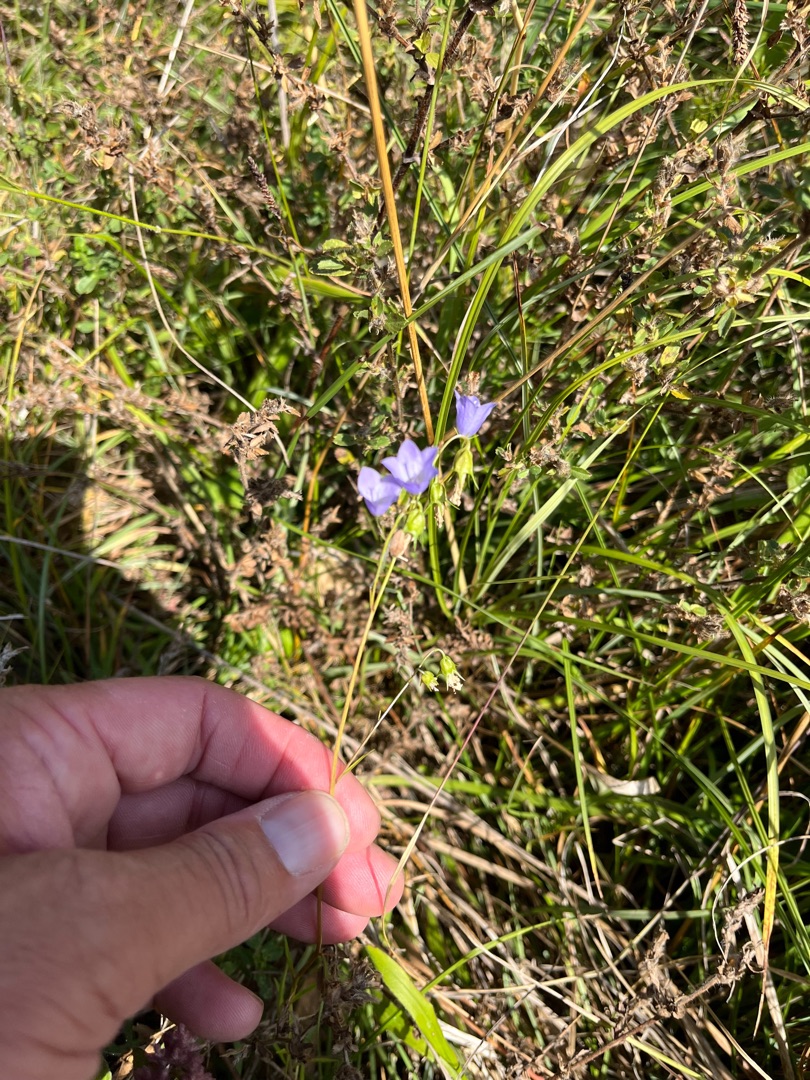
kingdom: Plantae
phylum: Tracheophyta
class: Magnoliopsida
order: Asterales
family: Campanulaceae
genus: Campanula
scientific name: Campanula rotundifolia
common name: Liden klokke
